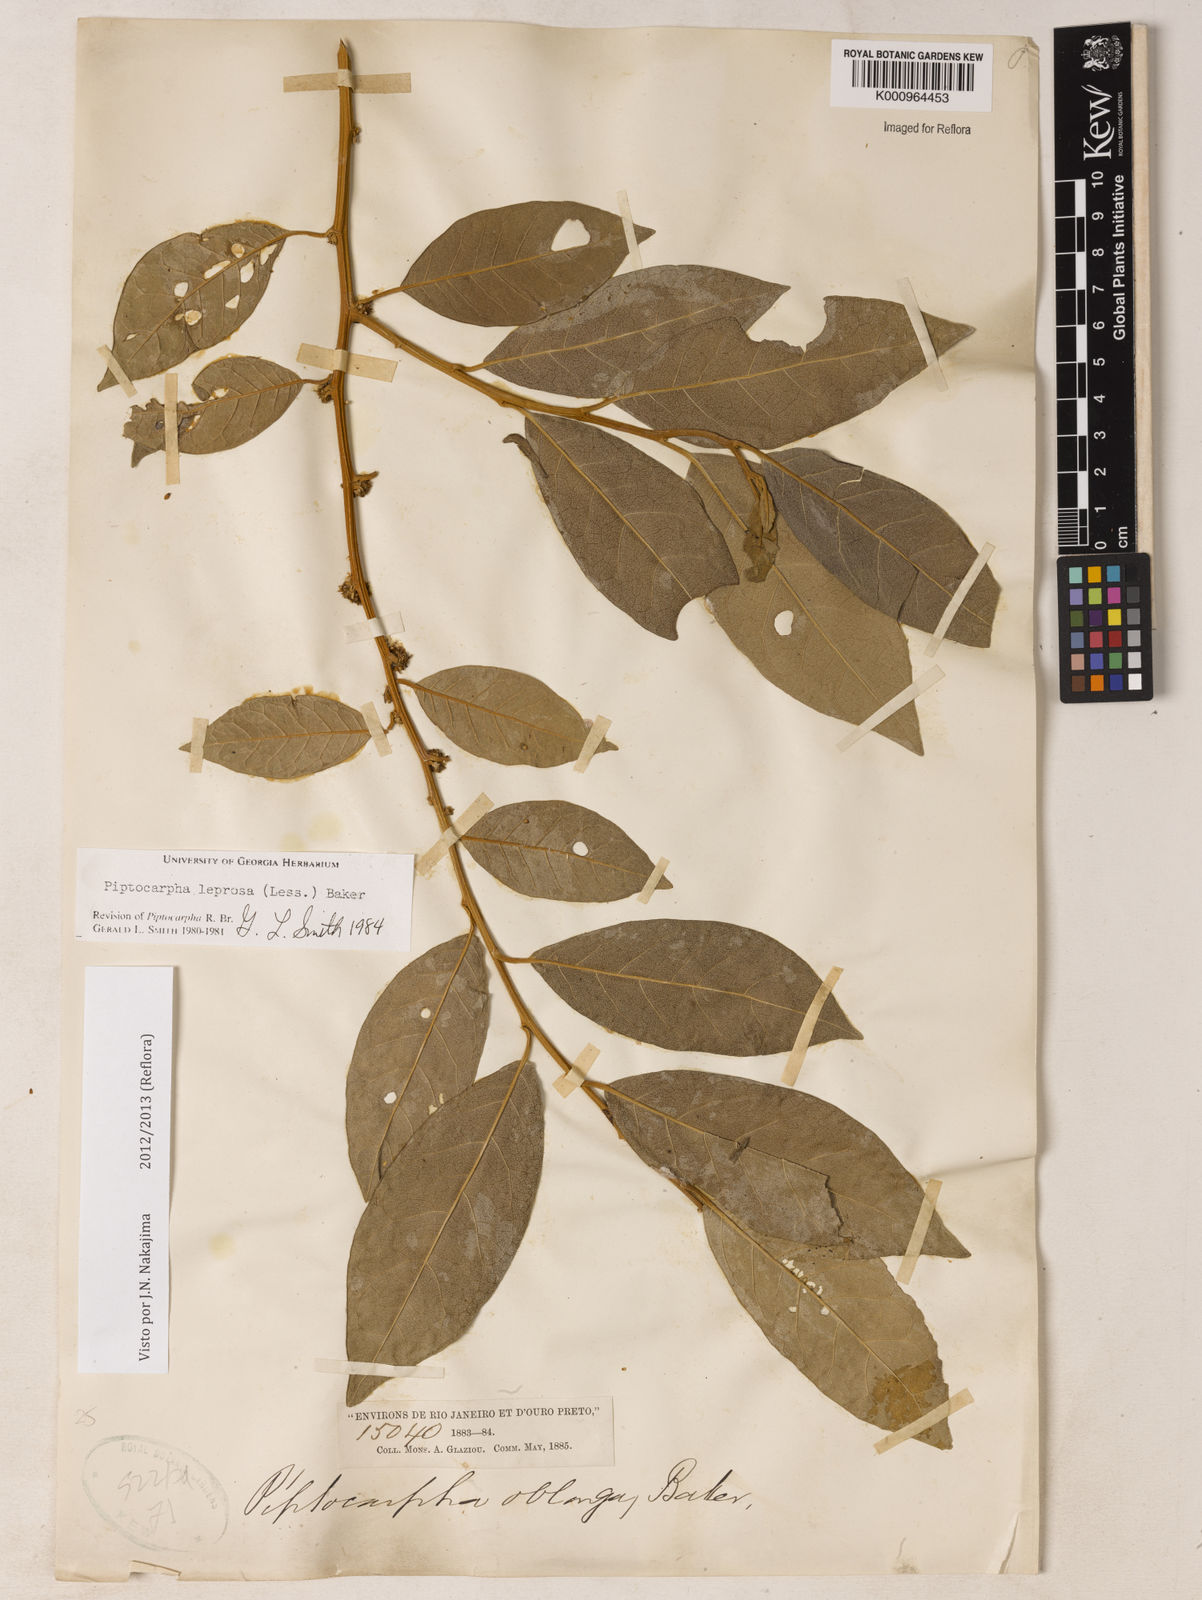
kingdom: Plantae
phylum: Tracheophyta
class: Magnoliopsida
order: Asterales
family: Asteraceae
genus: Piptocarpha
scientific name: Piptocarpha leprosa
